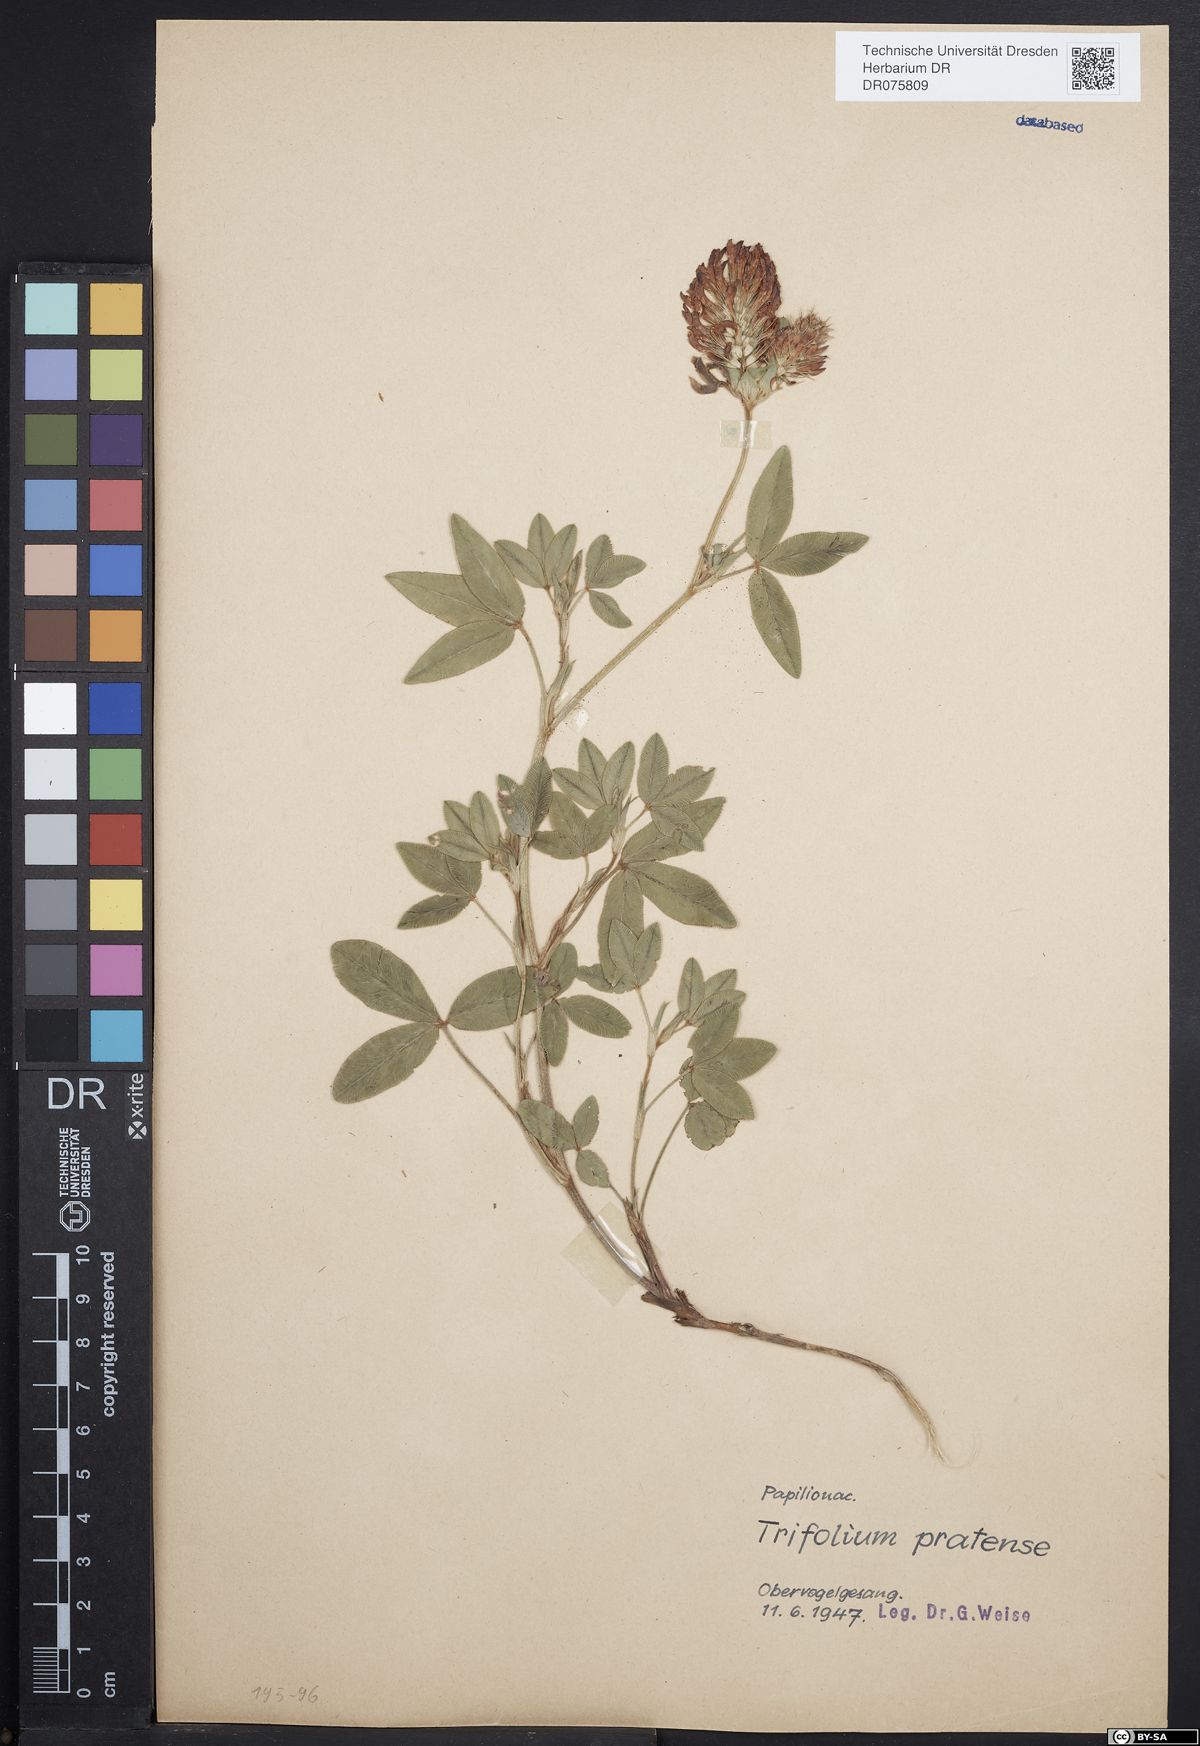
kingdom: Plantae
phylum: Tracheophyta
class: Magnoliopsida
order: Fabales
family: Fabaceae
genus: Trifolium
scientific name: Trifolium pratense
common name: Red clover
